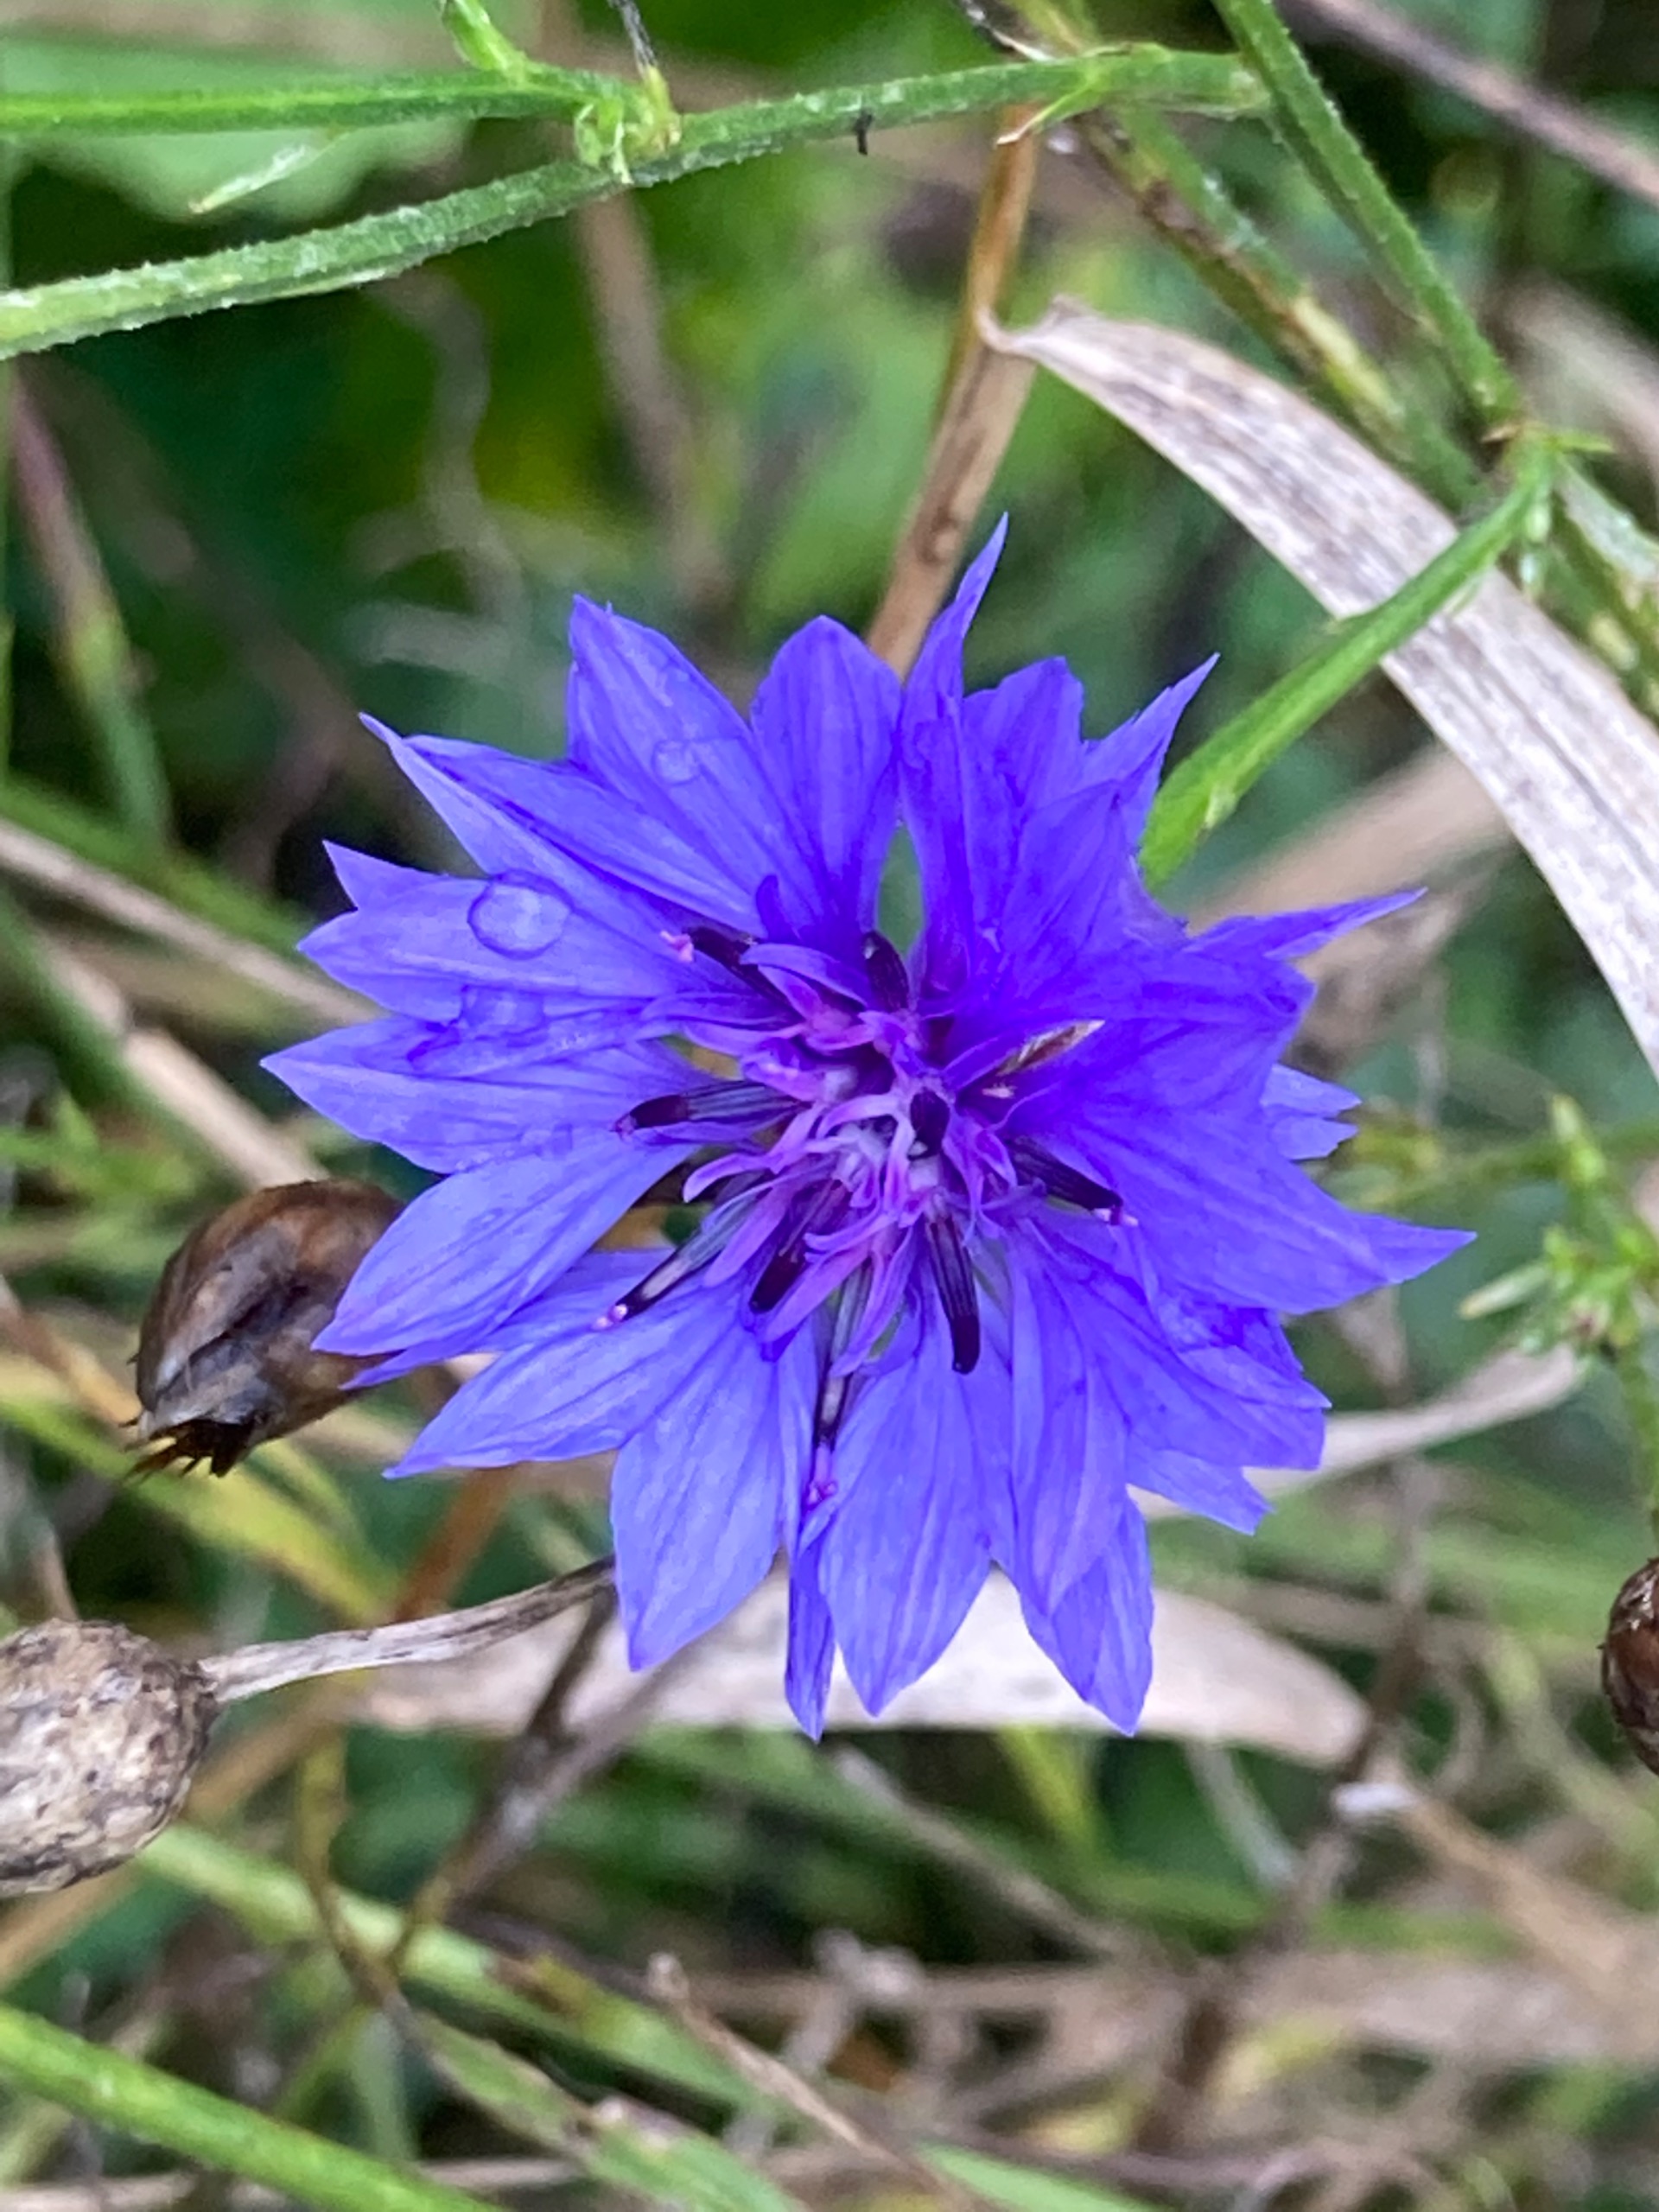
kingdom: Plantae
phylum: Tracheophyta
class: Magnoliopsida
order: Asterales
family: Asteraceae
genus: Centaurea
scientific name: Centaurea cyanus
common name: Kornblomst
